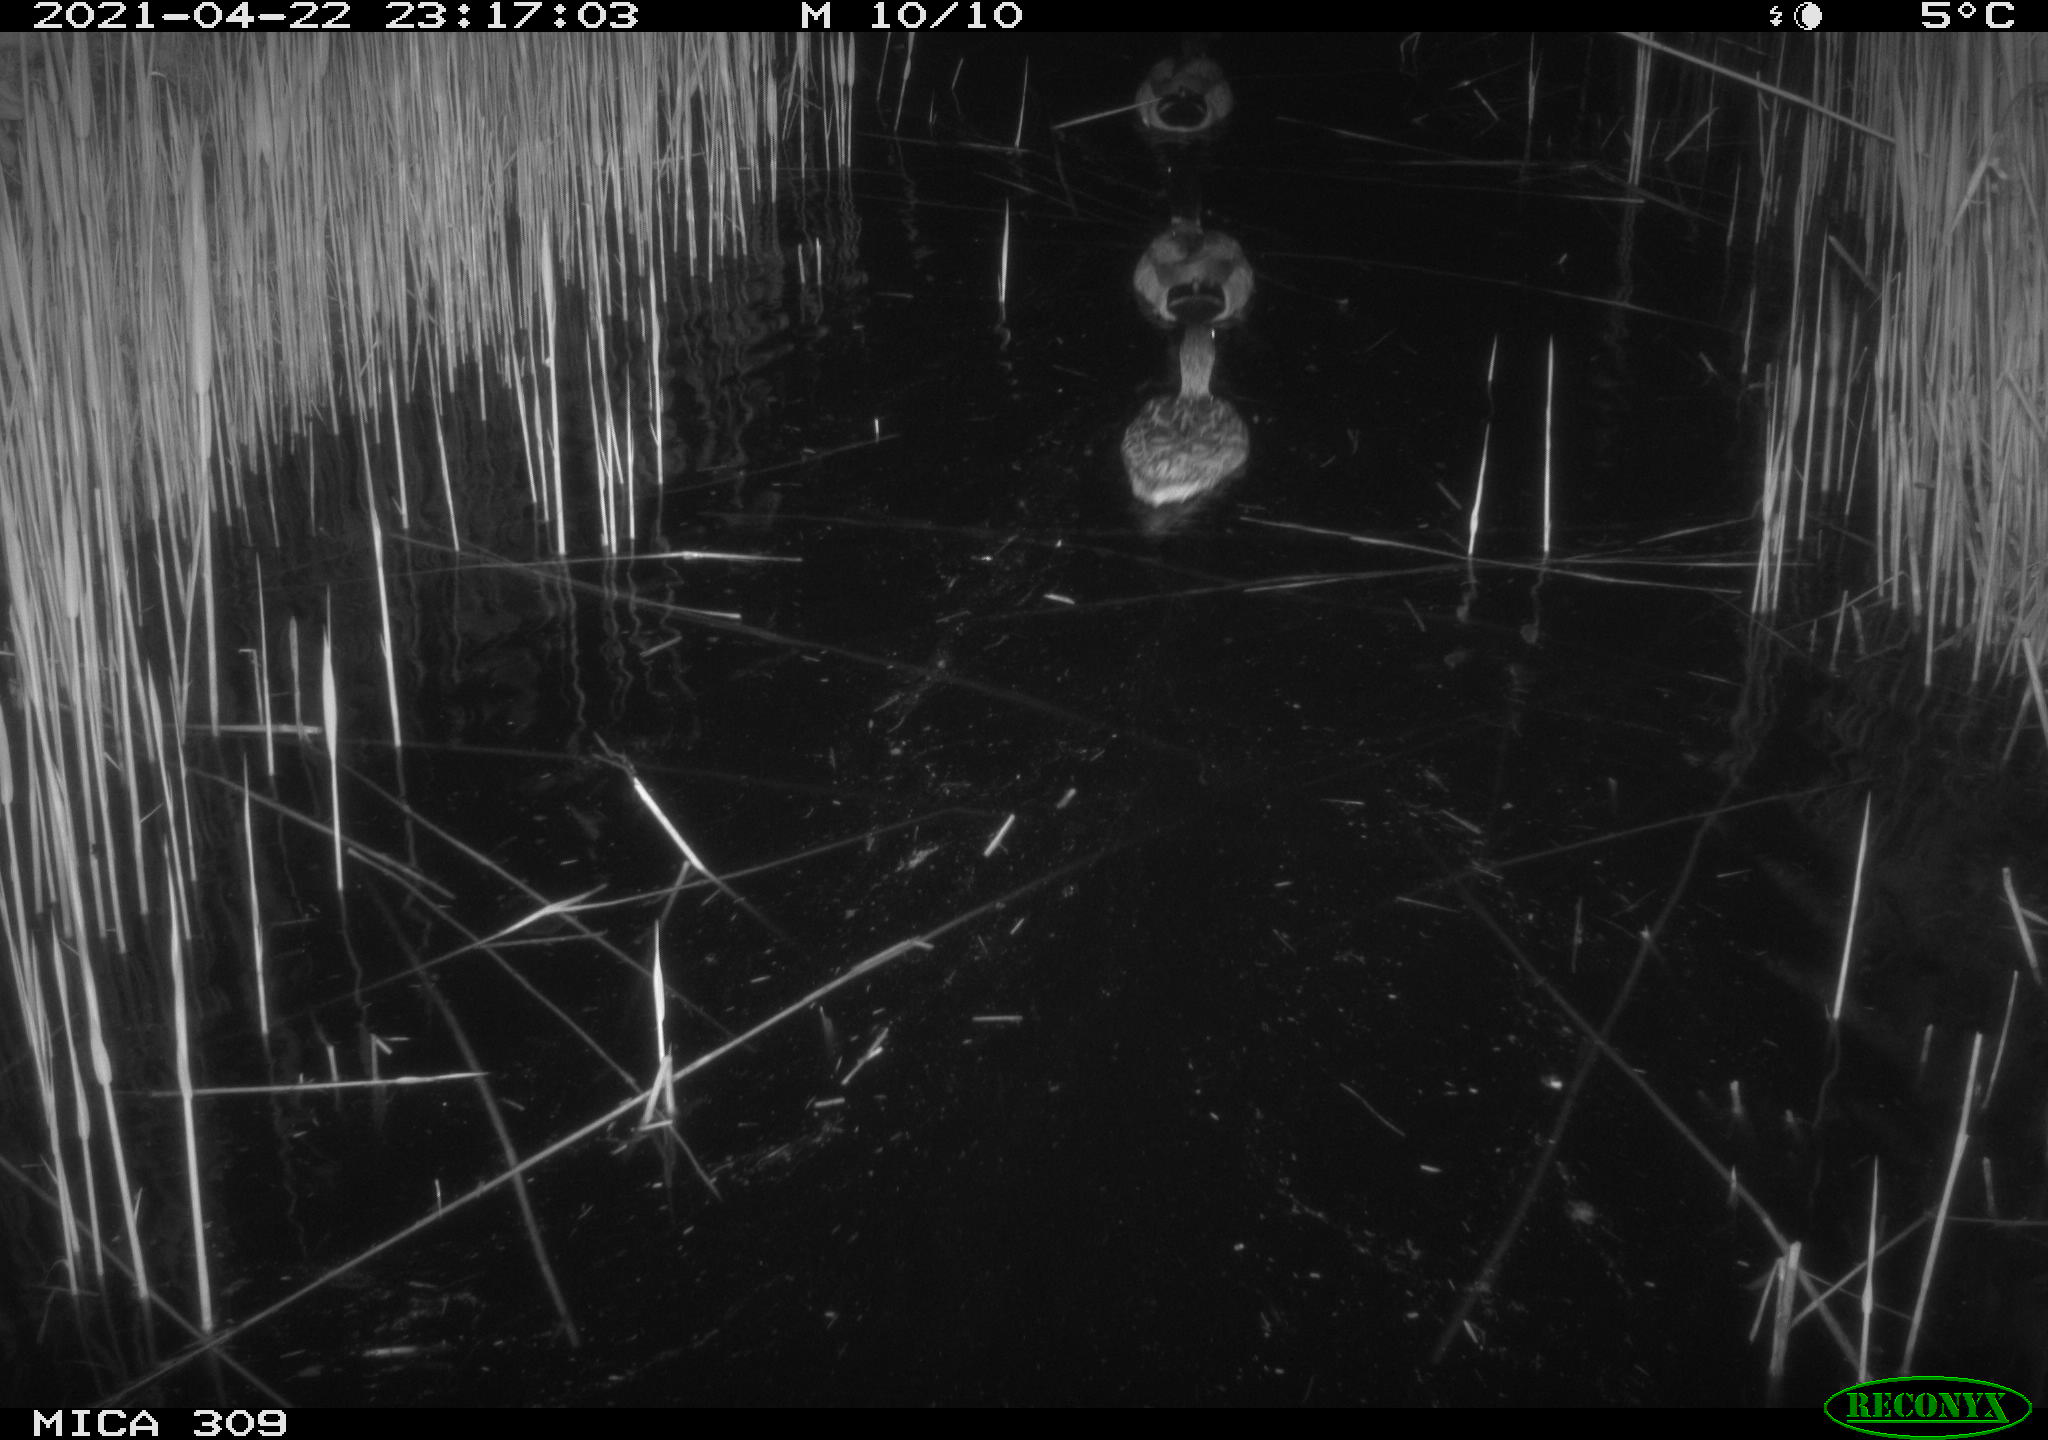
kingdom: Animalia
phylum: Chordata
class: Aves
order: Anseriformes
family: Anatidae
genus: Anas
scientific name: Anas platyrhynchos
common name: Mallard
